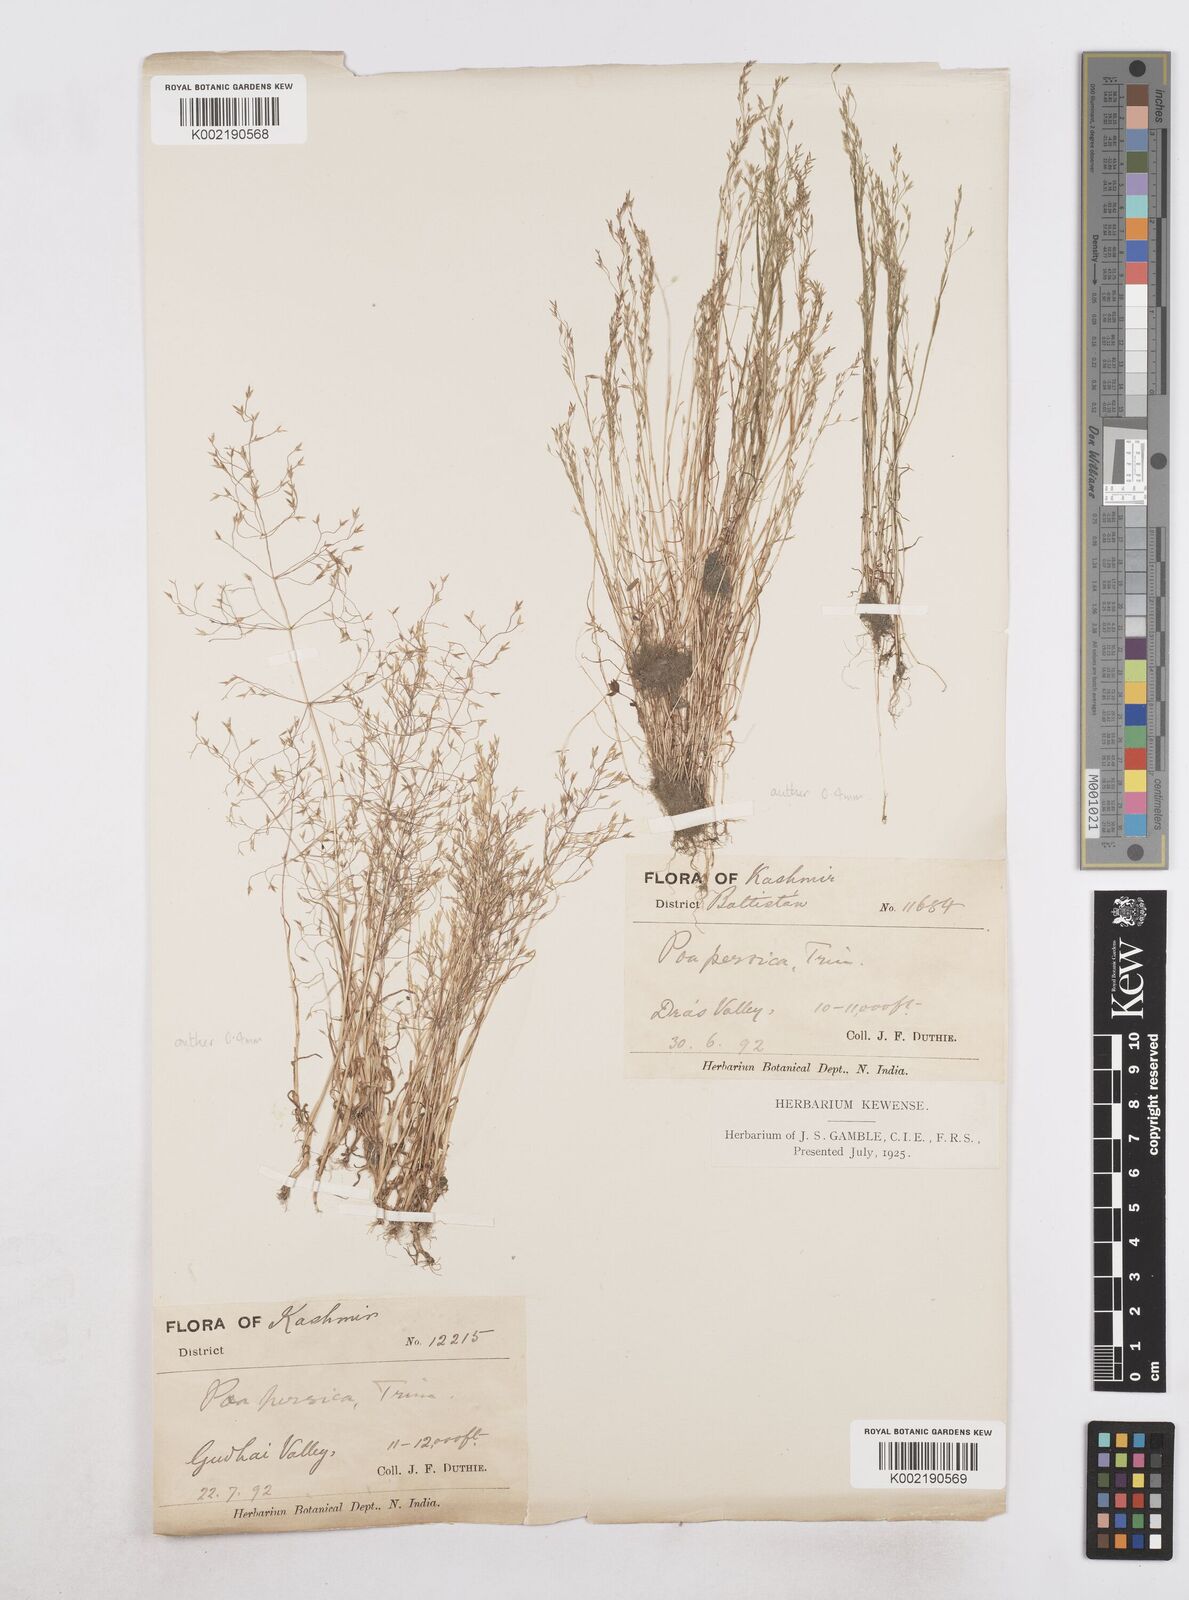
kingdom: Plantae
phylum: Tracheophyta
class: Liliopsida
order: Poales
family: Poaceae
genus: Poa
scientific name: Poa diaphora
